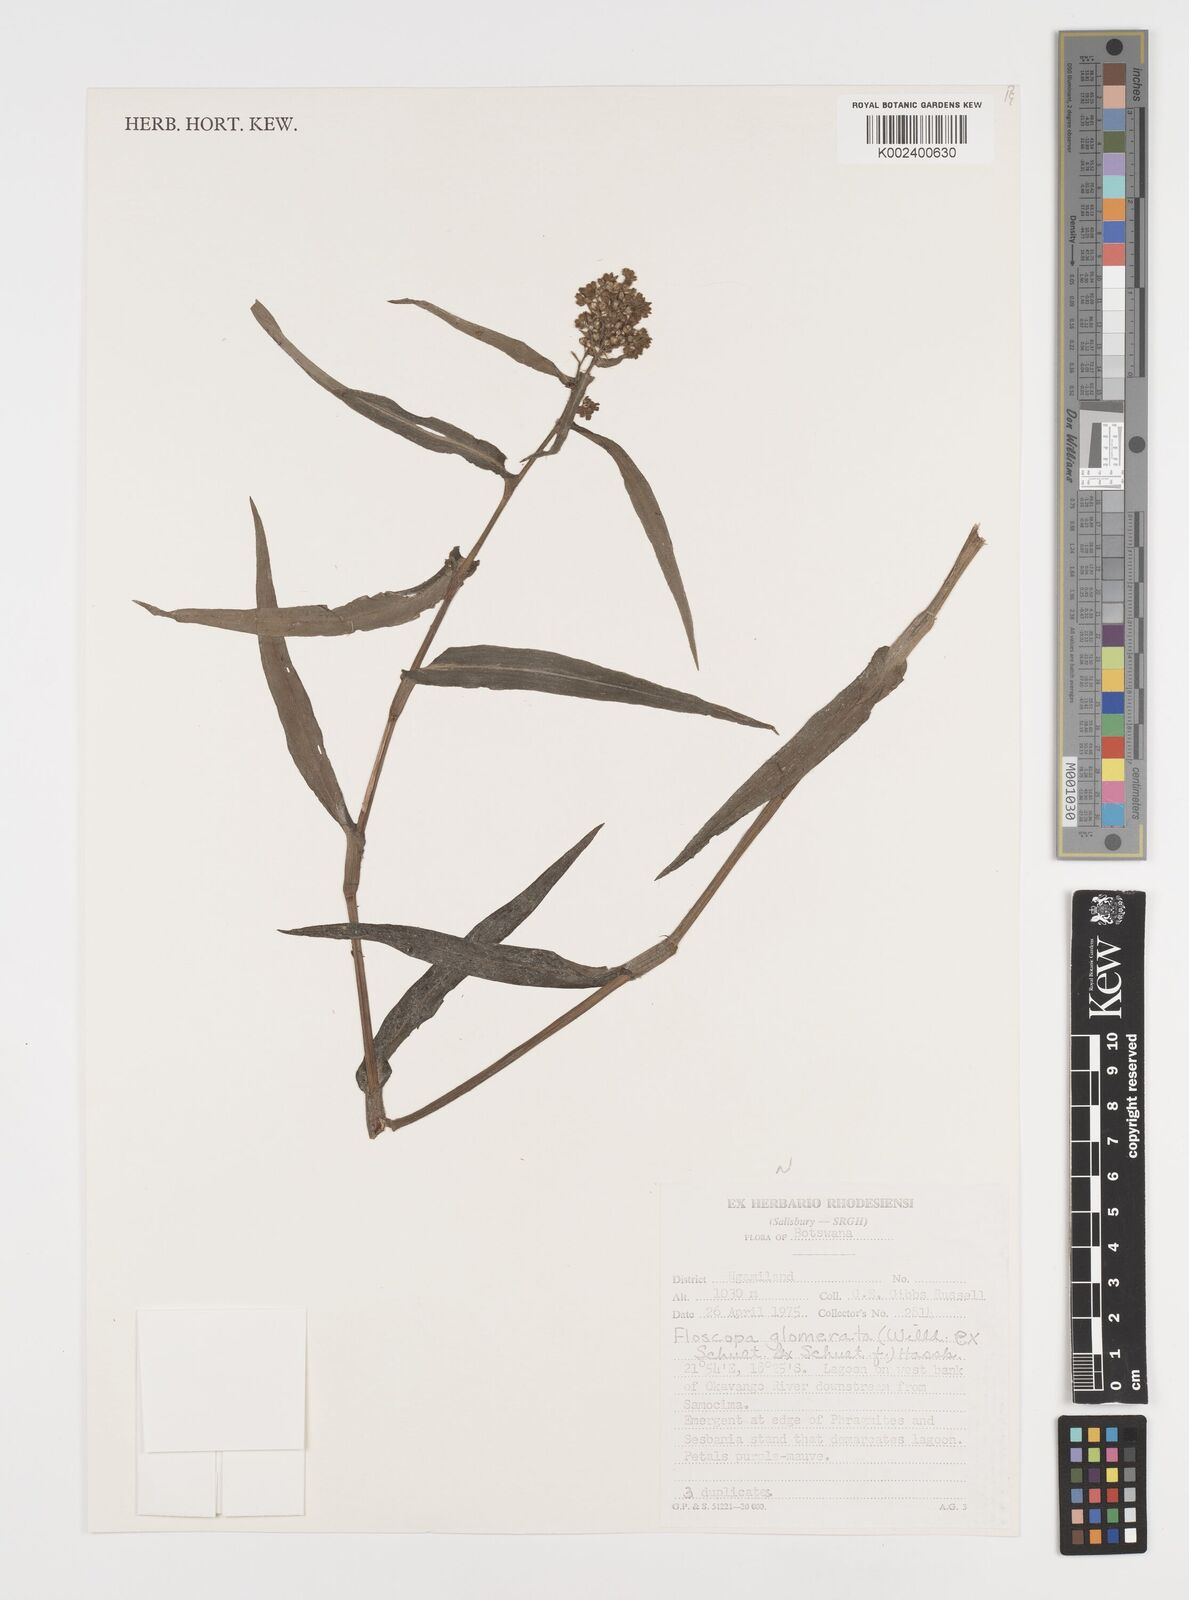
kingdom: Plantae
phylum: Tracheophyta
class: Liliopsida
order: Commelinales
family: Commelinaceae
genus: Floscopa
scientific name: Floscopa glomerata
